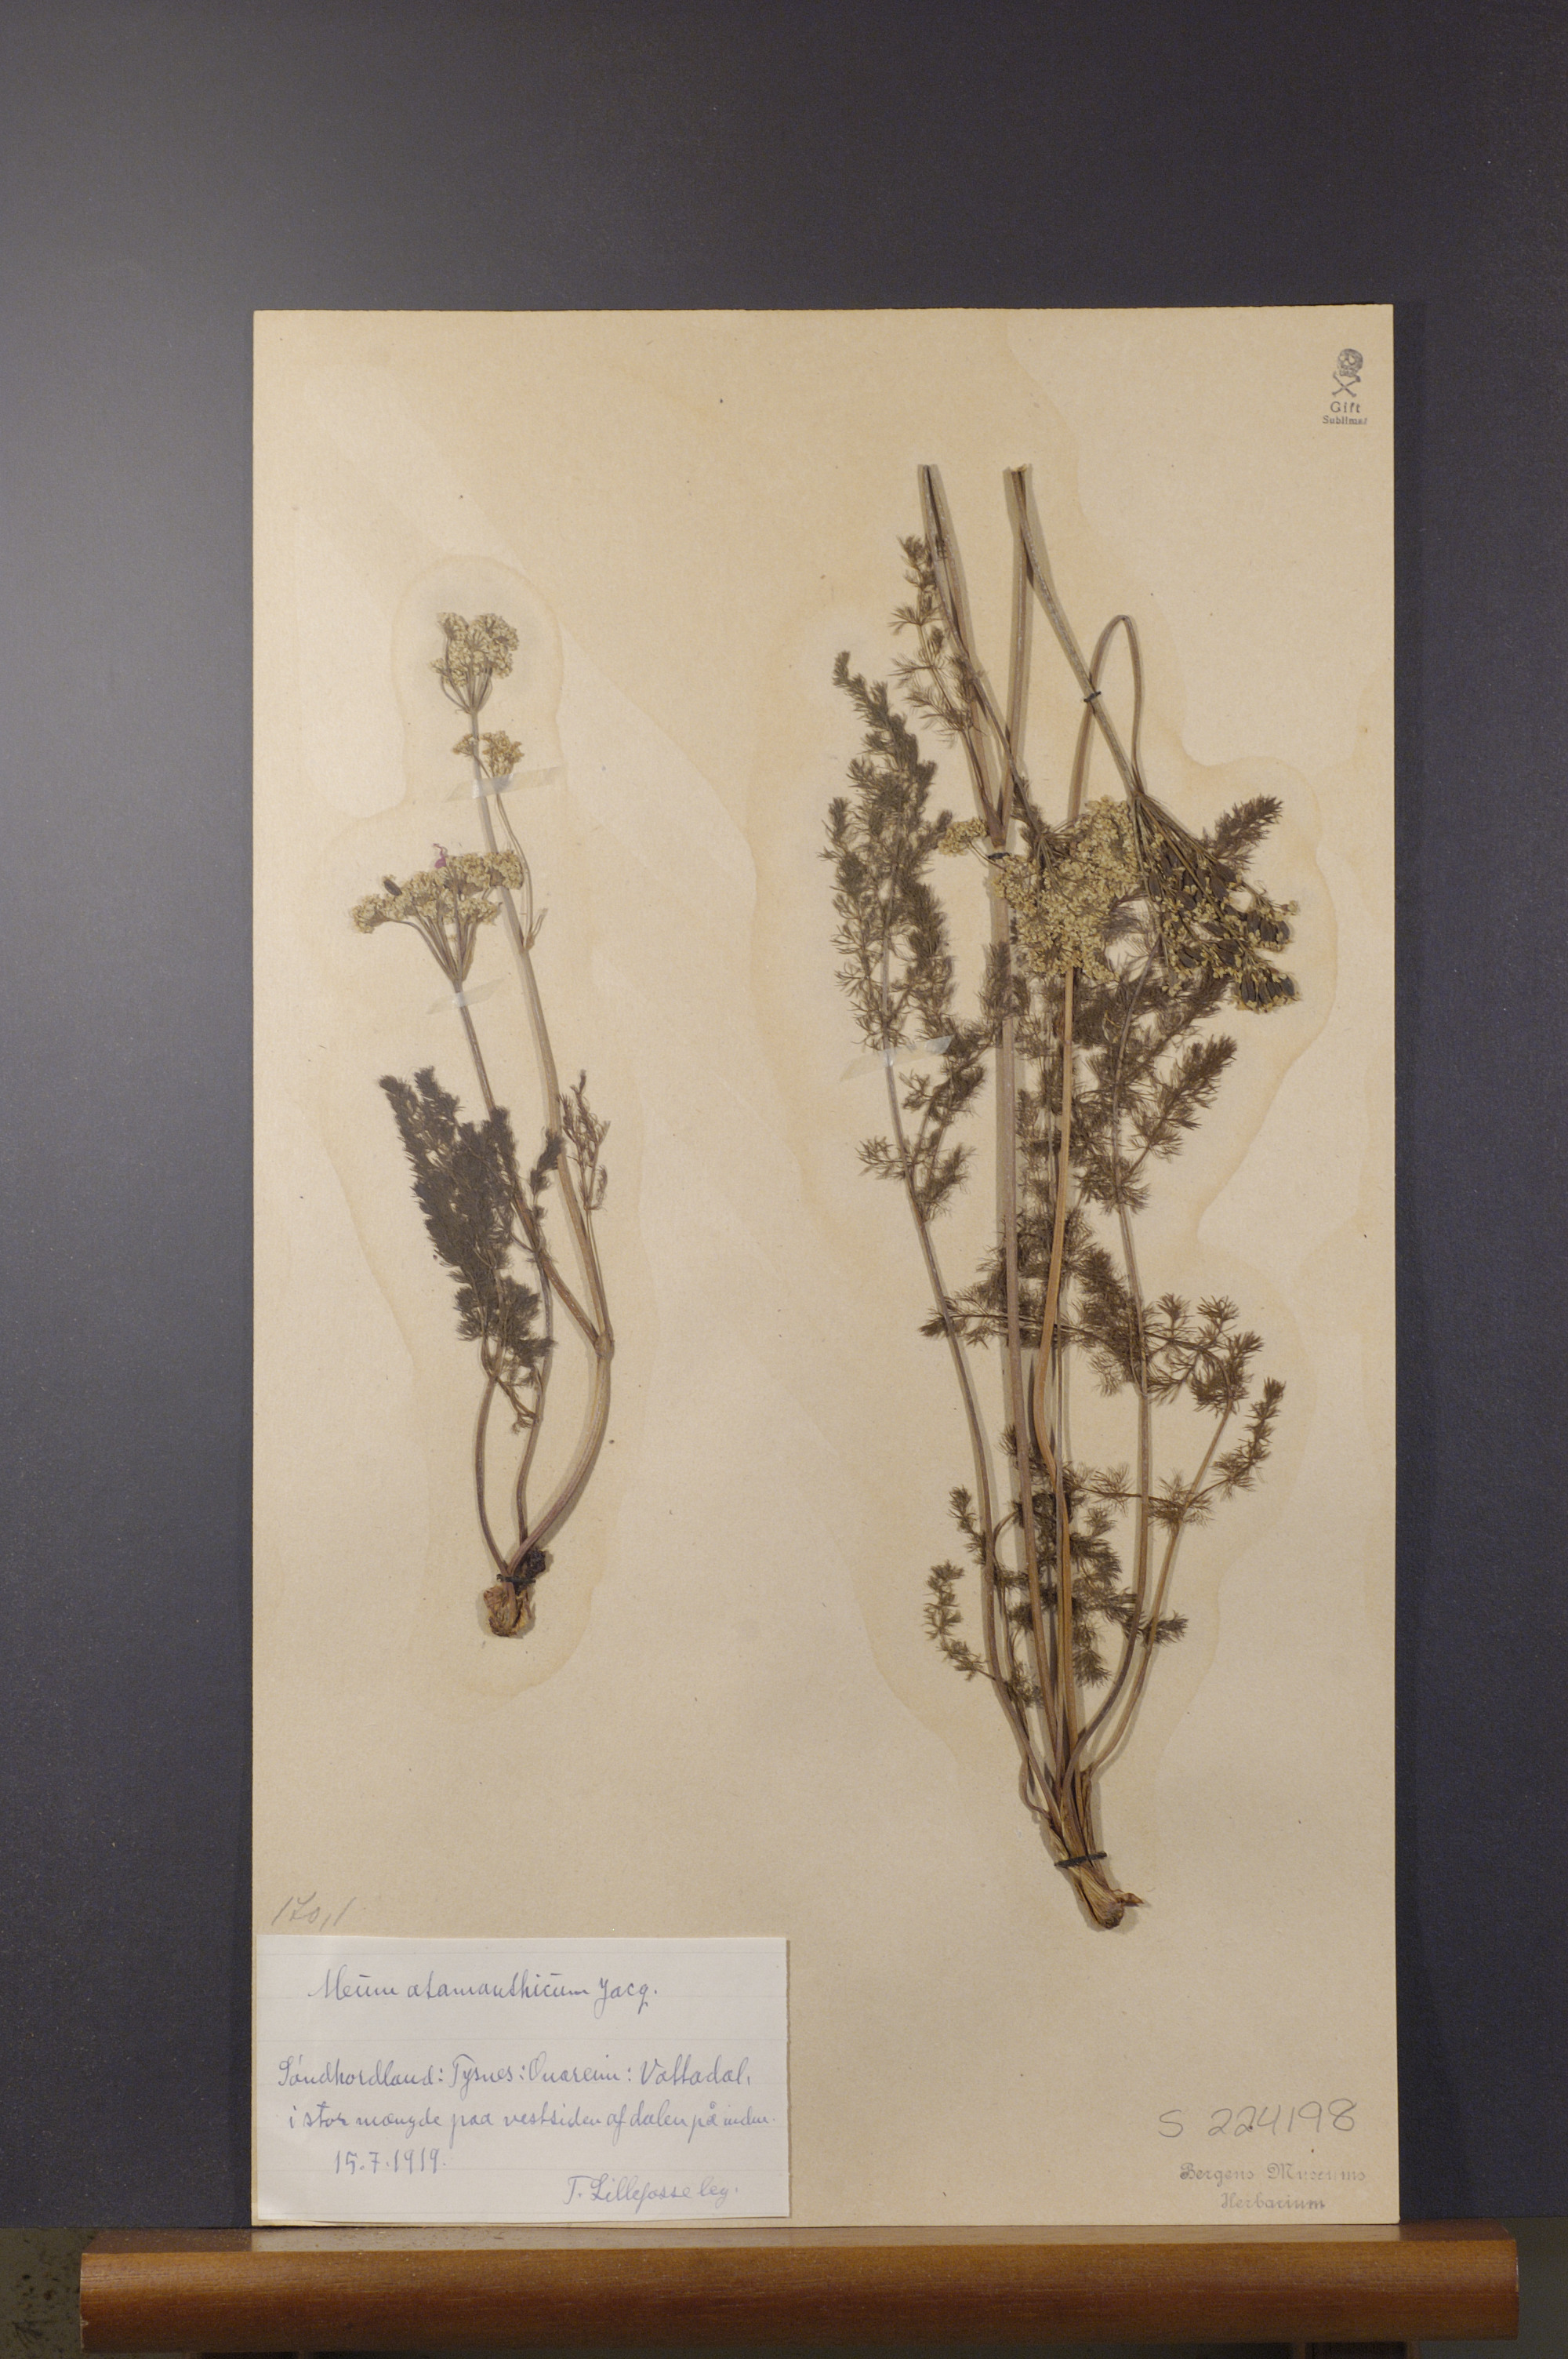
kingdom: Plantae
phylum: Tracheophyta
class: Magnoliopsida
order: Apiales
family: Apiaceae
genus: Meum
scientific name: Meum athamanticum
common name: Spignel
